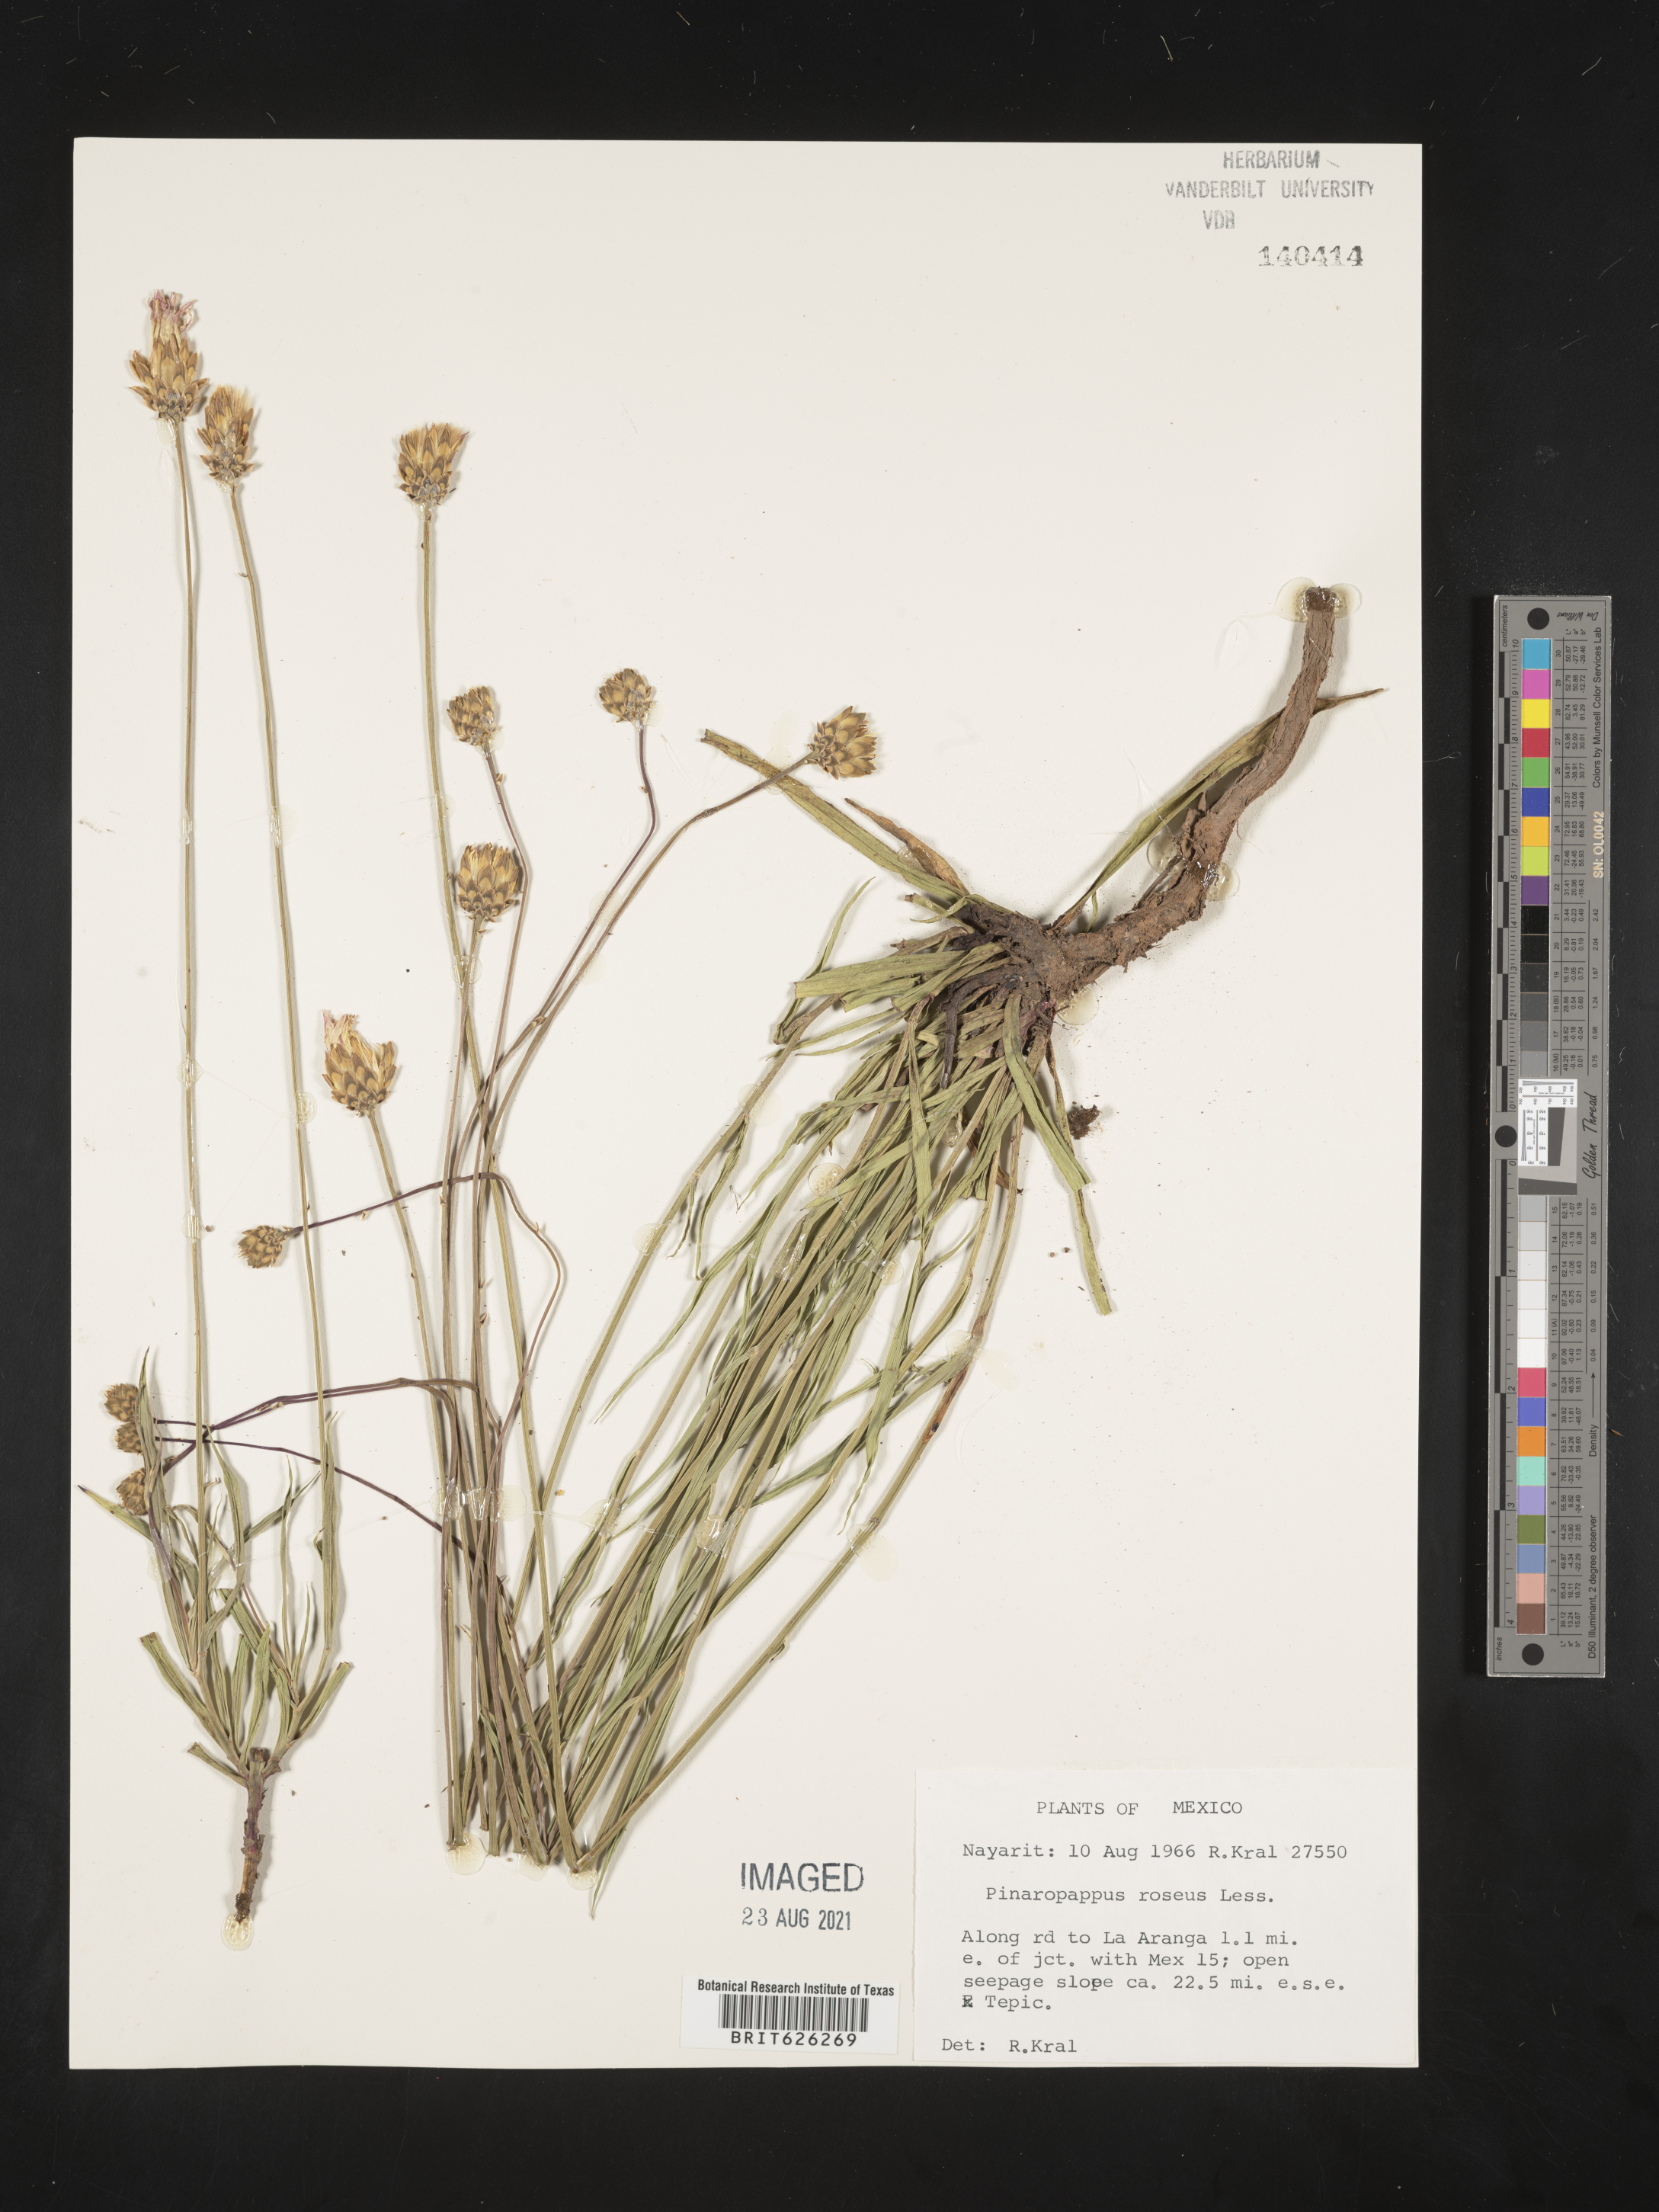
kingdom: Plantae
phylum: Tracheophyta
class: Magnoliopsida
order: Asterales
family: Asteraceae
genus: Pinaropappus
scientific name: Pinaropappus
